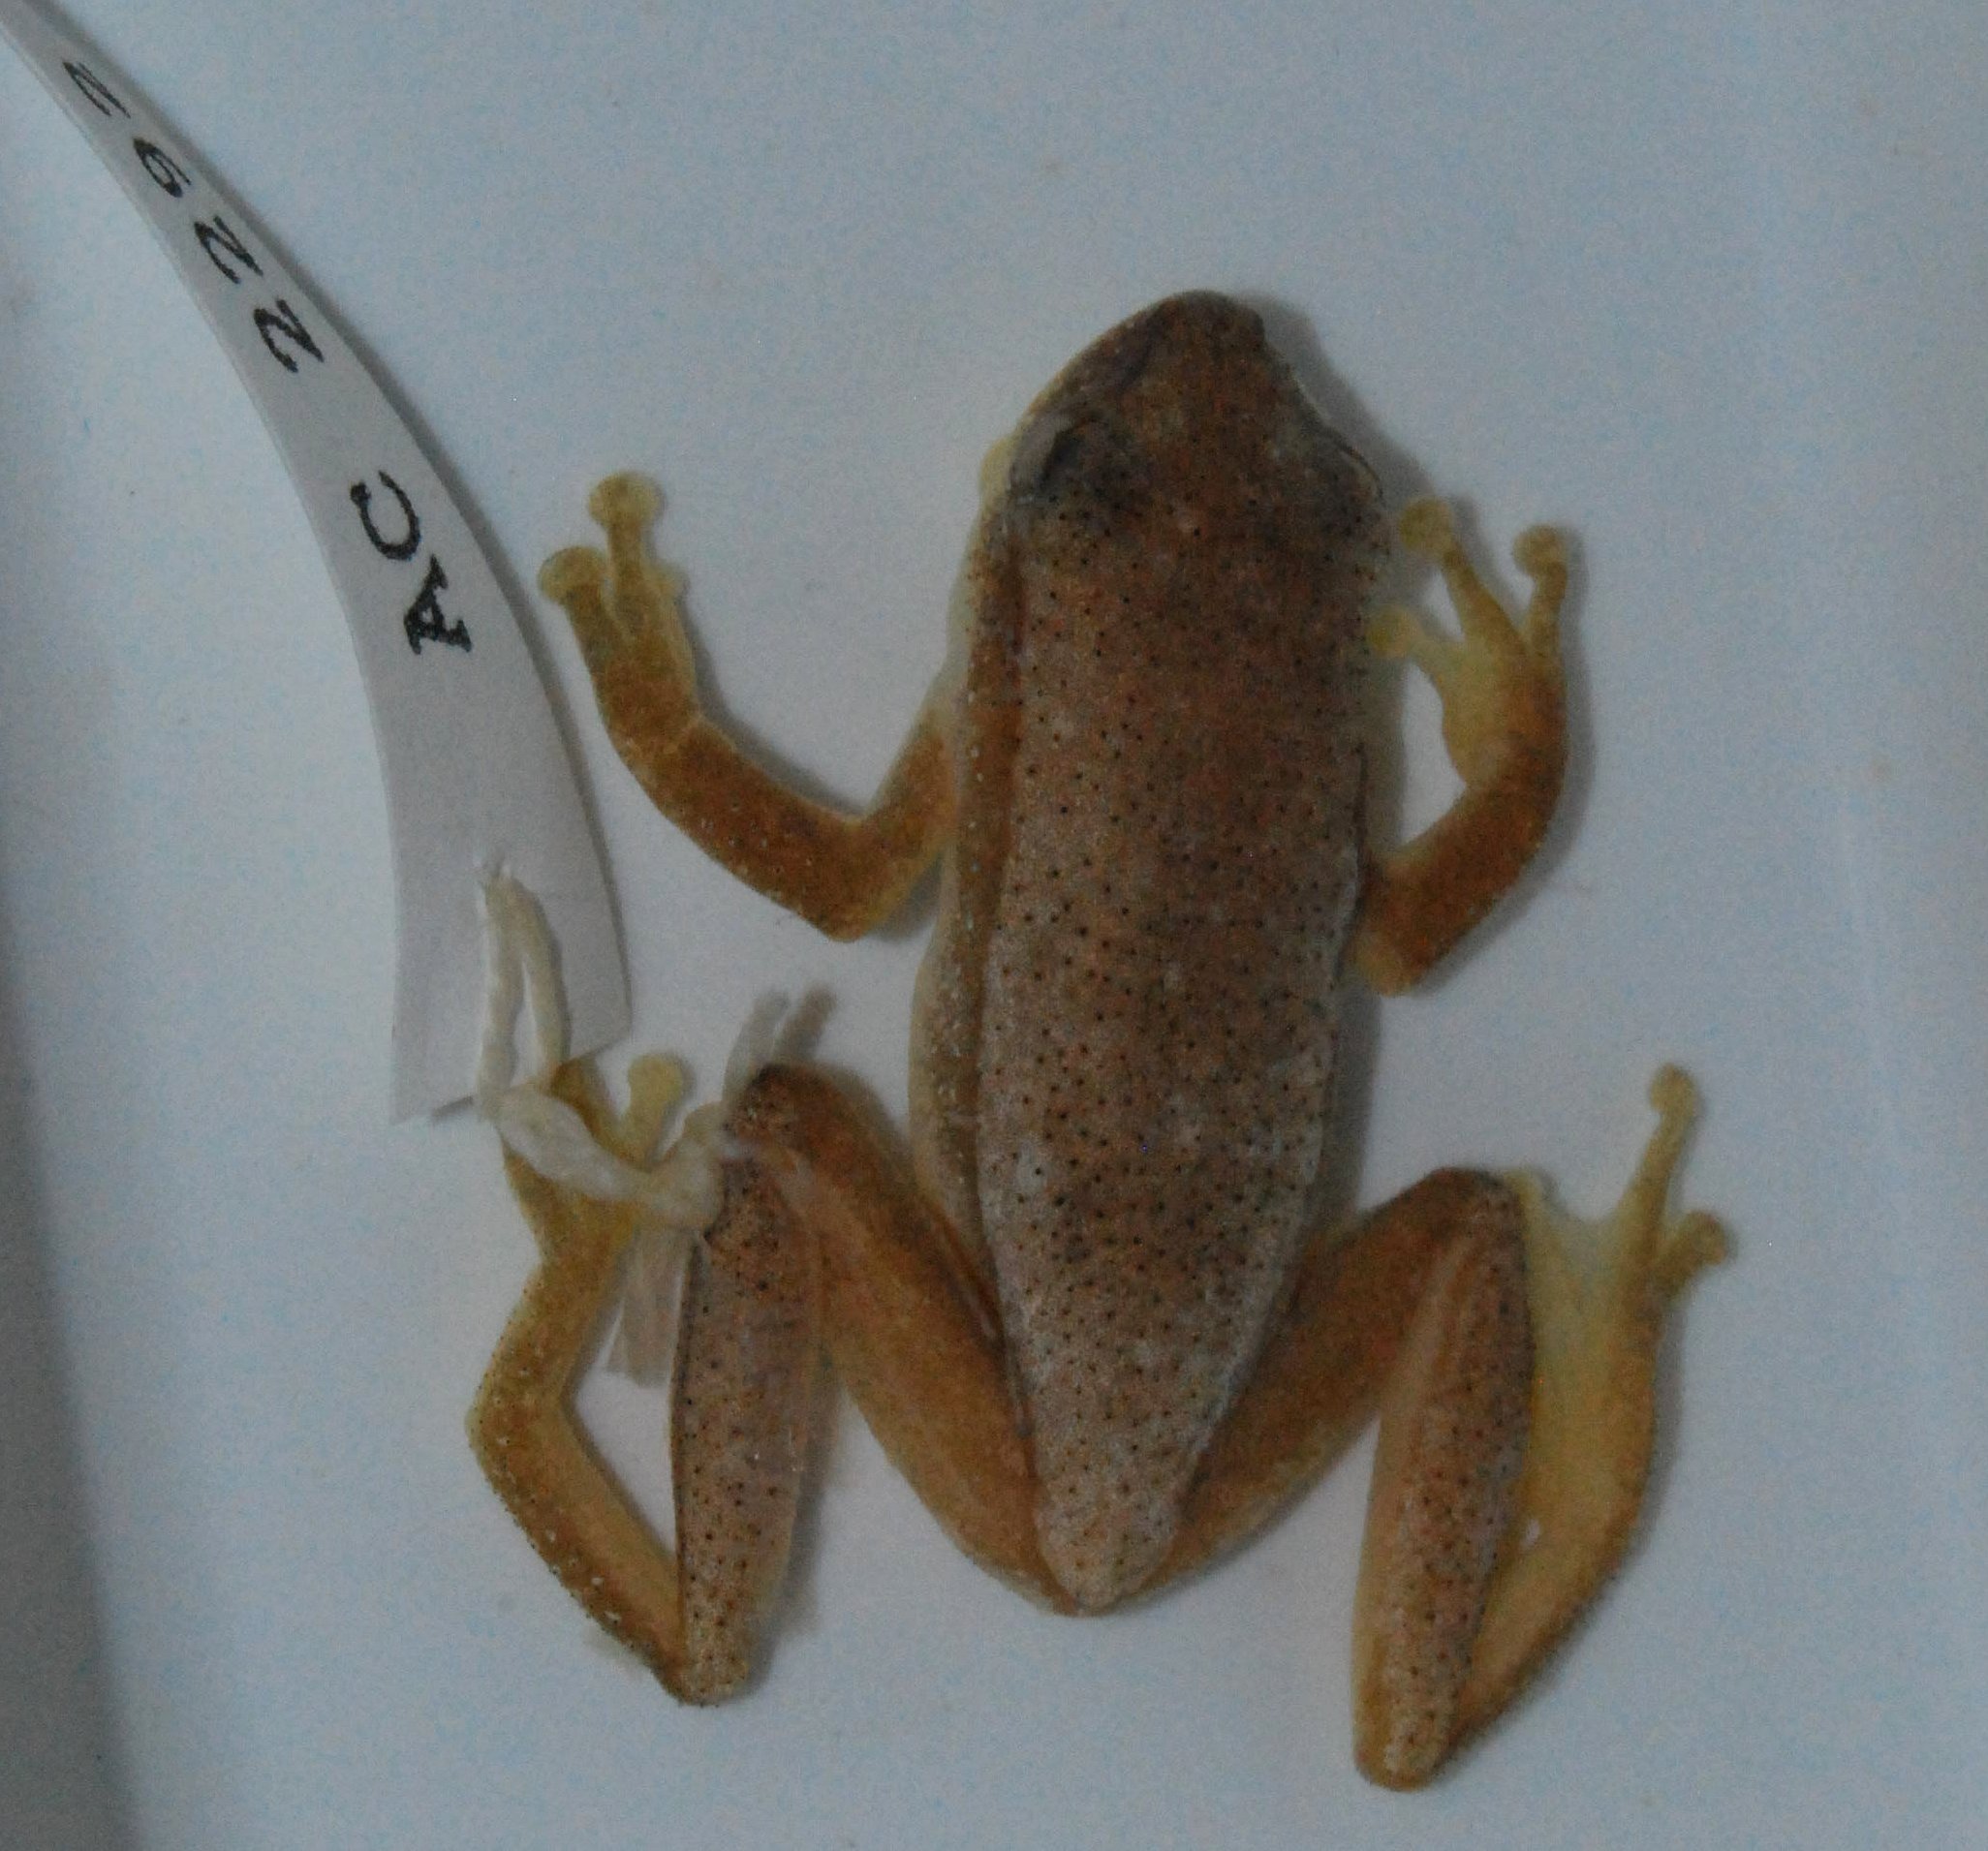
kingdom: Animalia
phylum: Chordata
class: Amphibia
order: Anura
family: Hyperoliidae
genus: Afrixalus
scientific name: Afrixalus fornasini
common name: Fornasini's spiny reed frog
